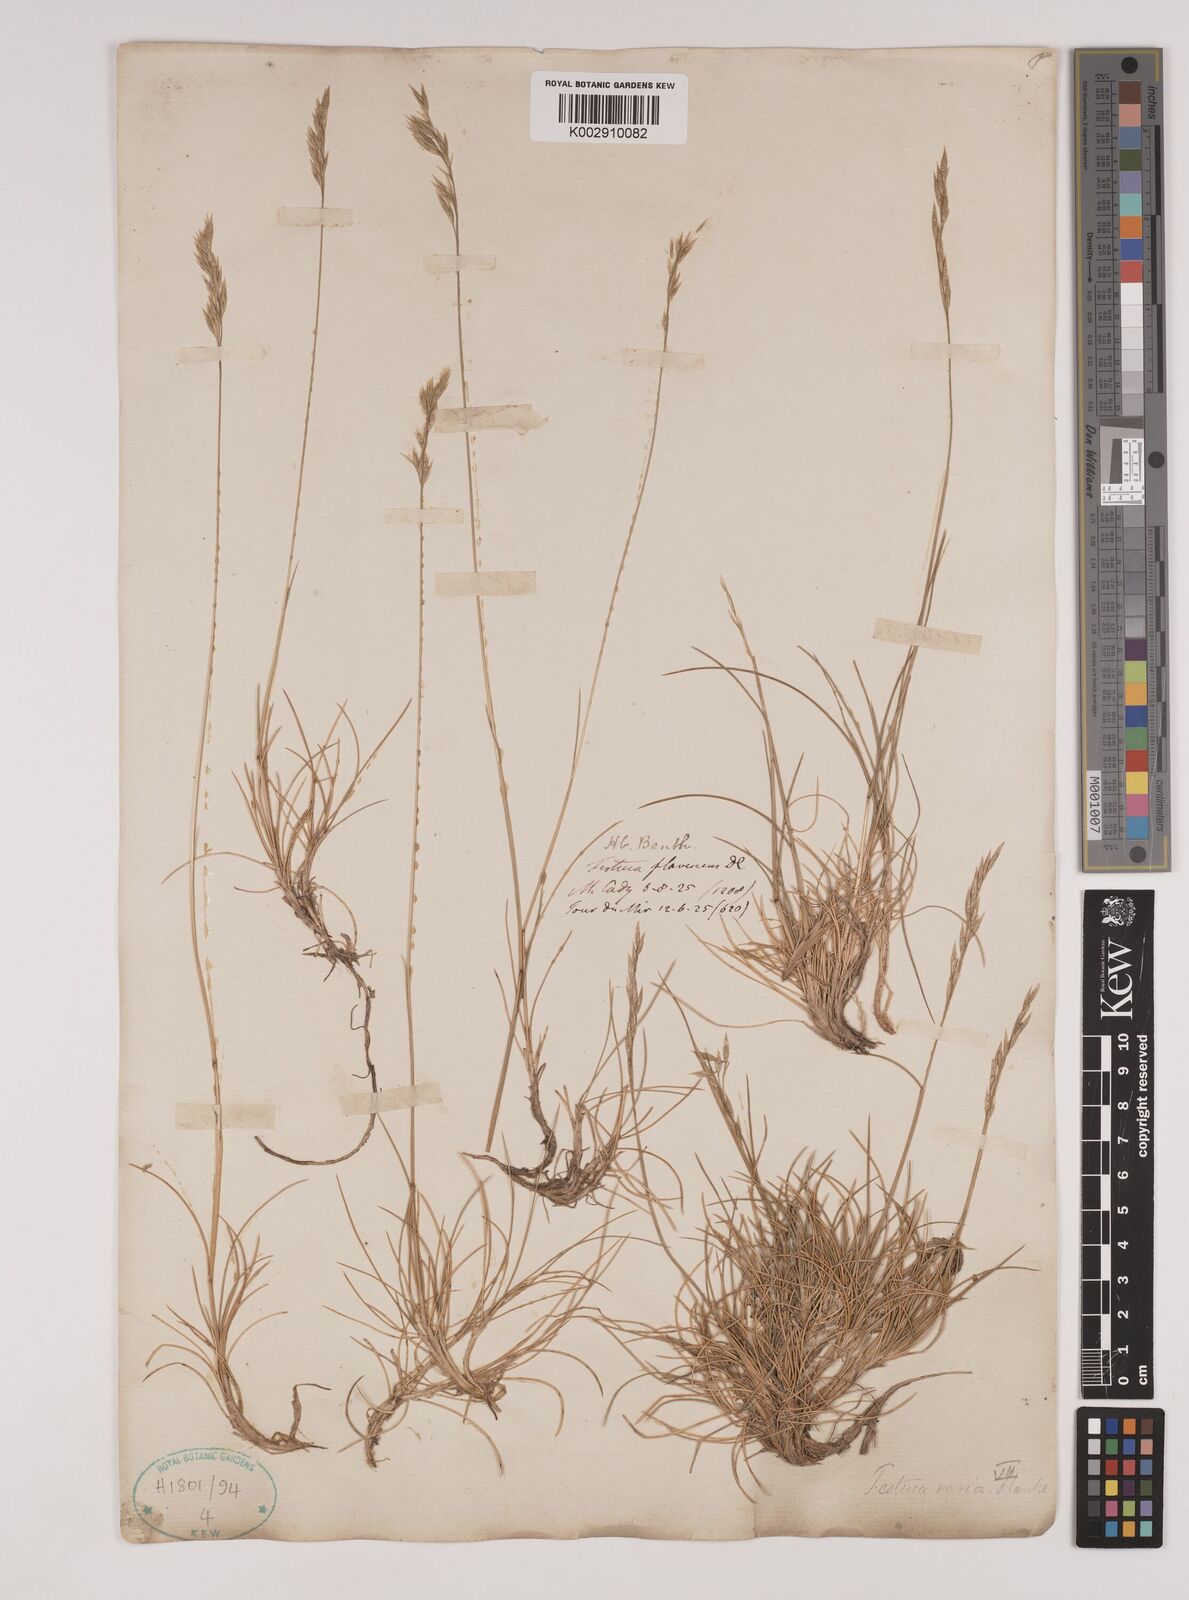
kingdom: Plantae
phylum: Tracheophyta
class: Liliopsida
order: Poales
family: Poaceae
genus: Festuca
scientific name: Festuca flavescens
